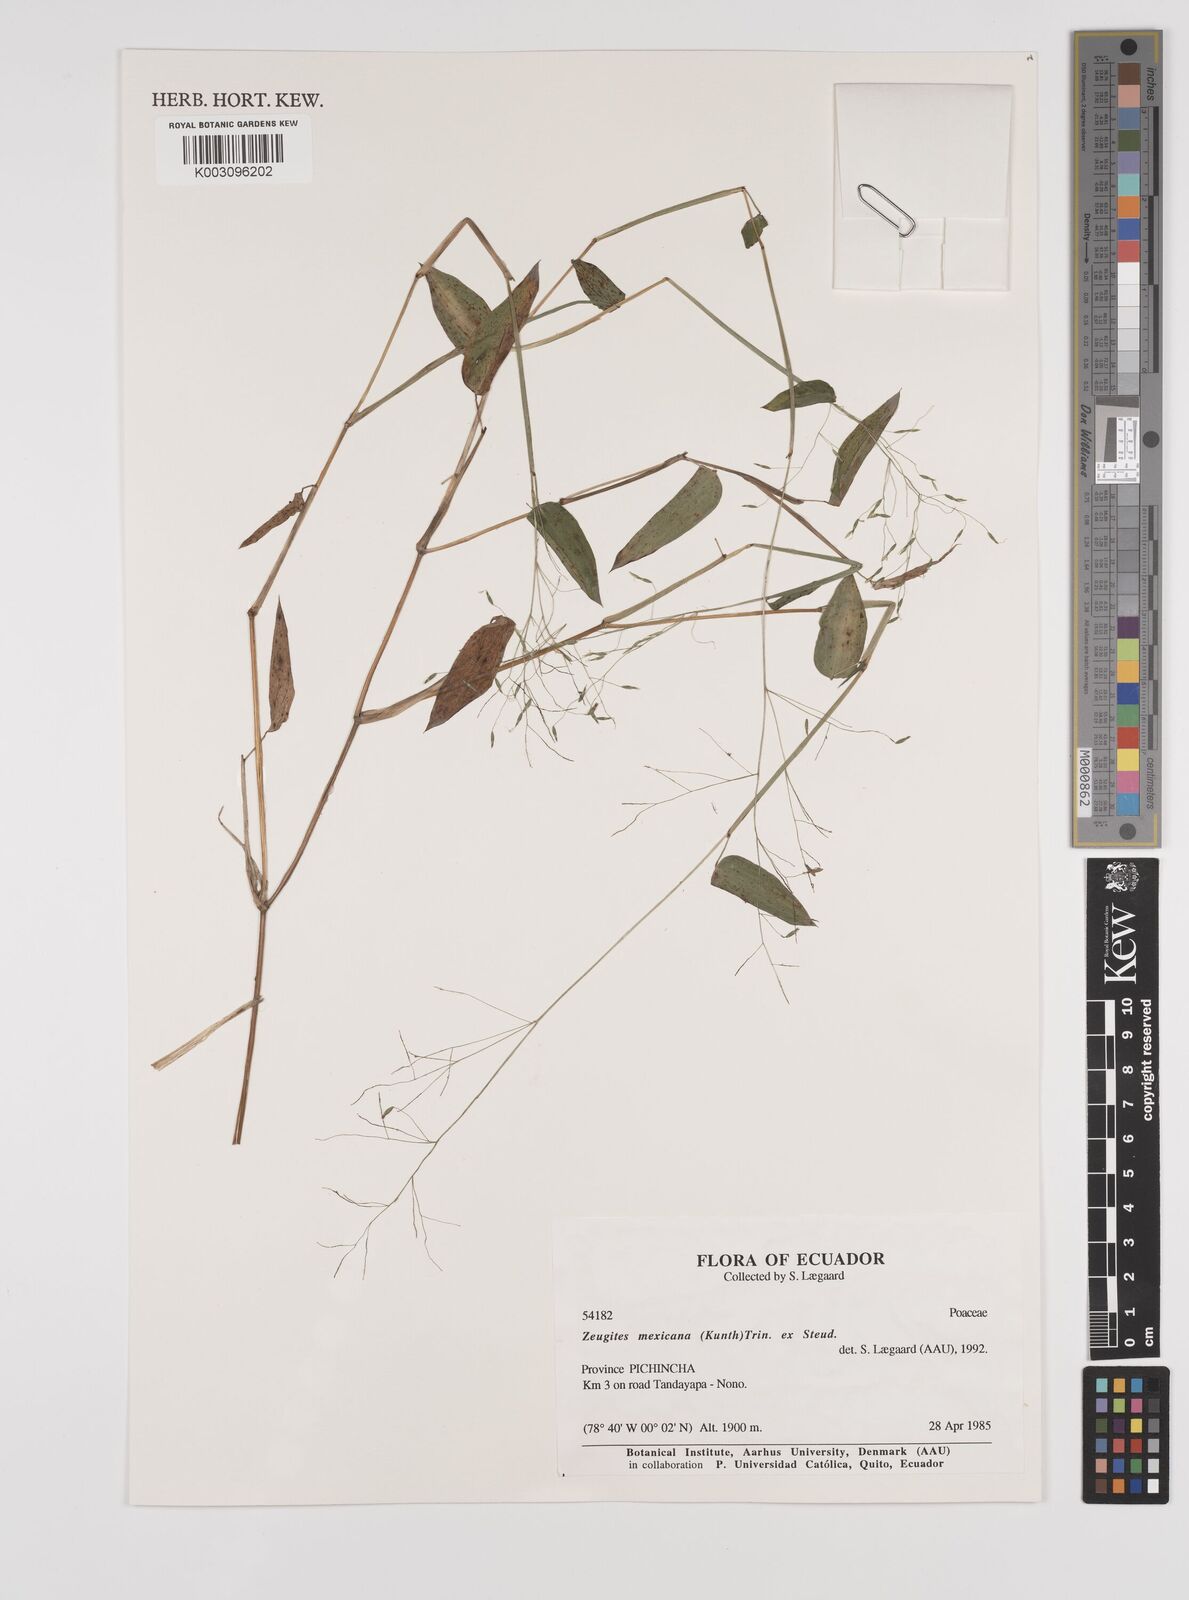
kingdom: Plantae
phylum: Tracheophyta
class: Liliopsida
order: Poales
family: Poaceae
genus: Zeugites
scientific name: Zeugites americanus
